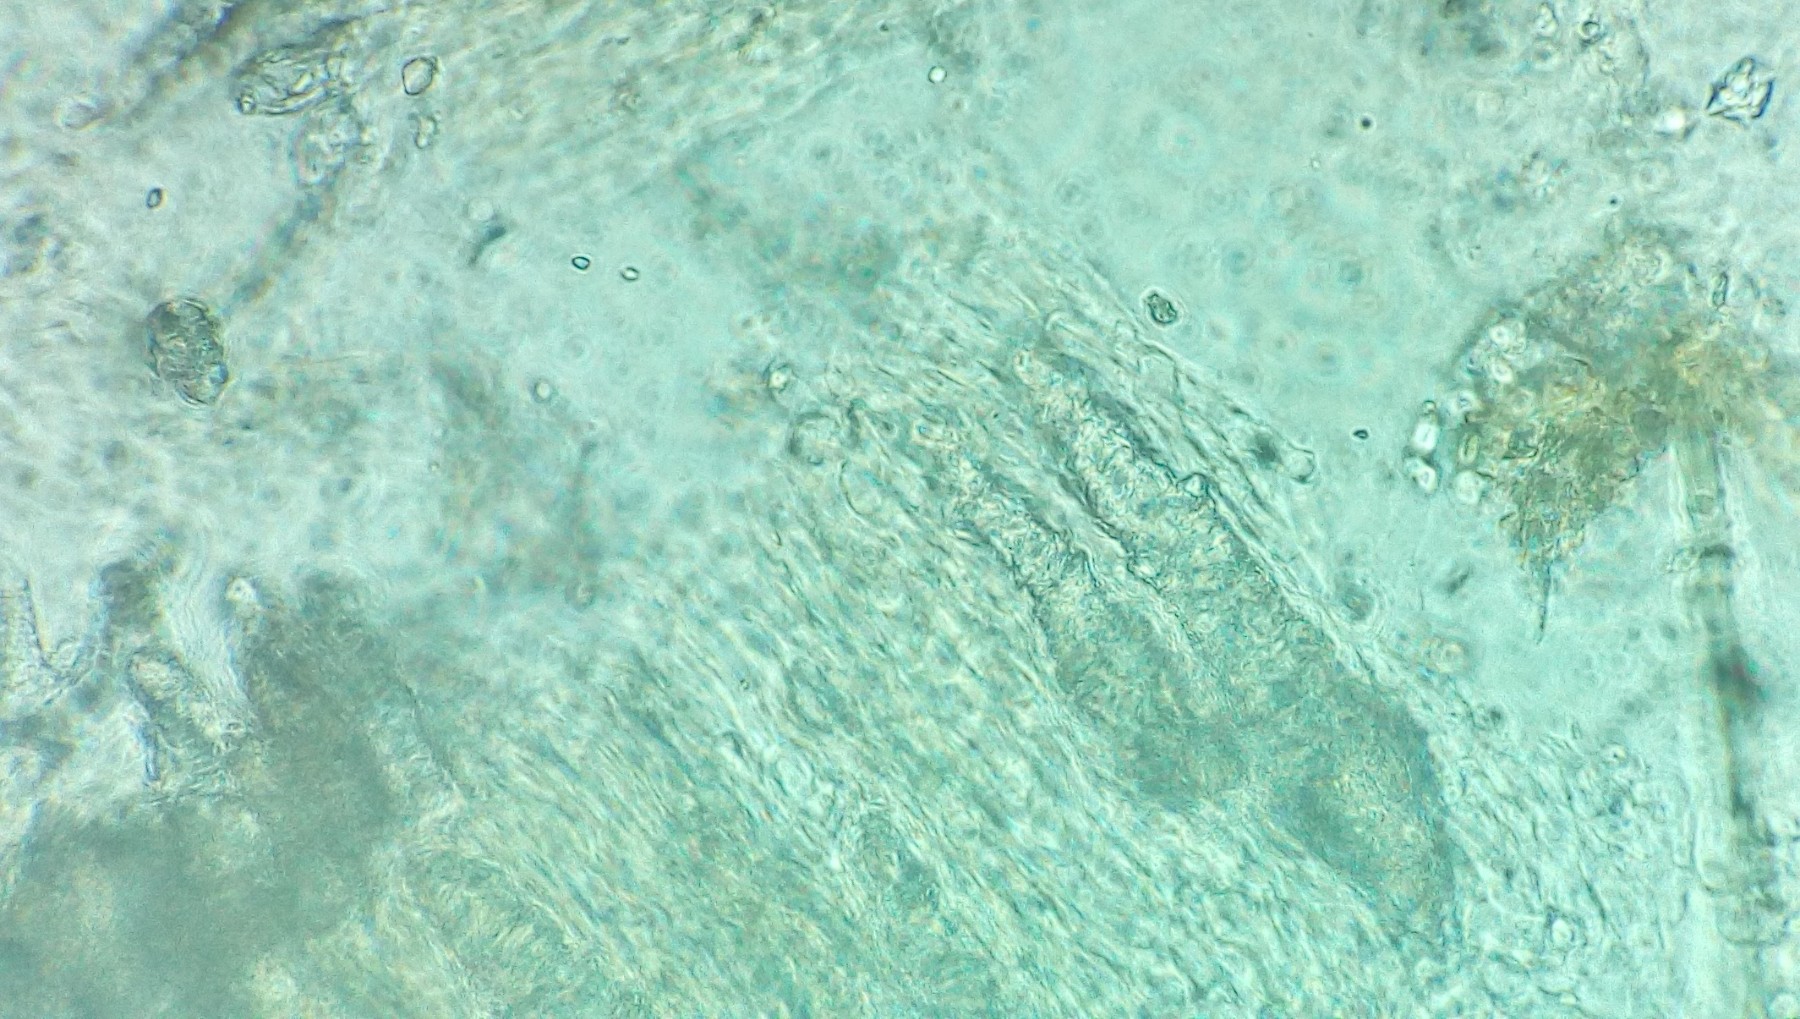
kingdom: Fungi
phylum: Basidiomycota
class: Agaricomycetes
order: Corticiales
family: Corticiaceae
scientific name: Corticiaceae
